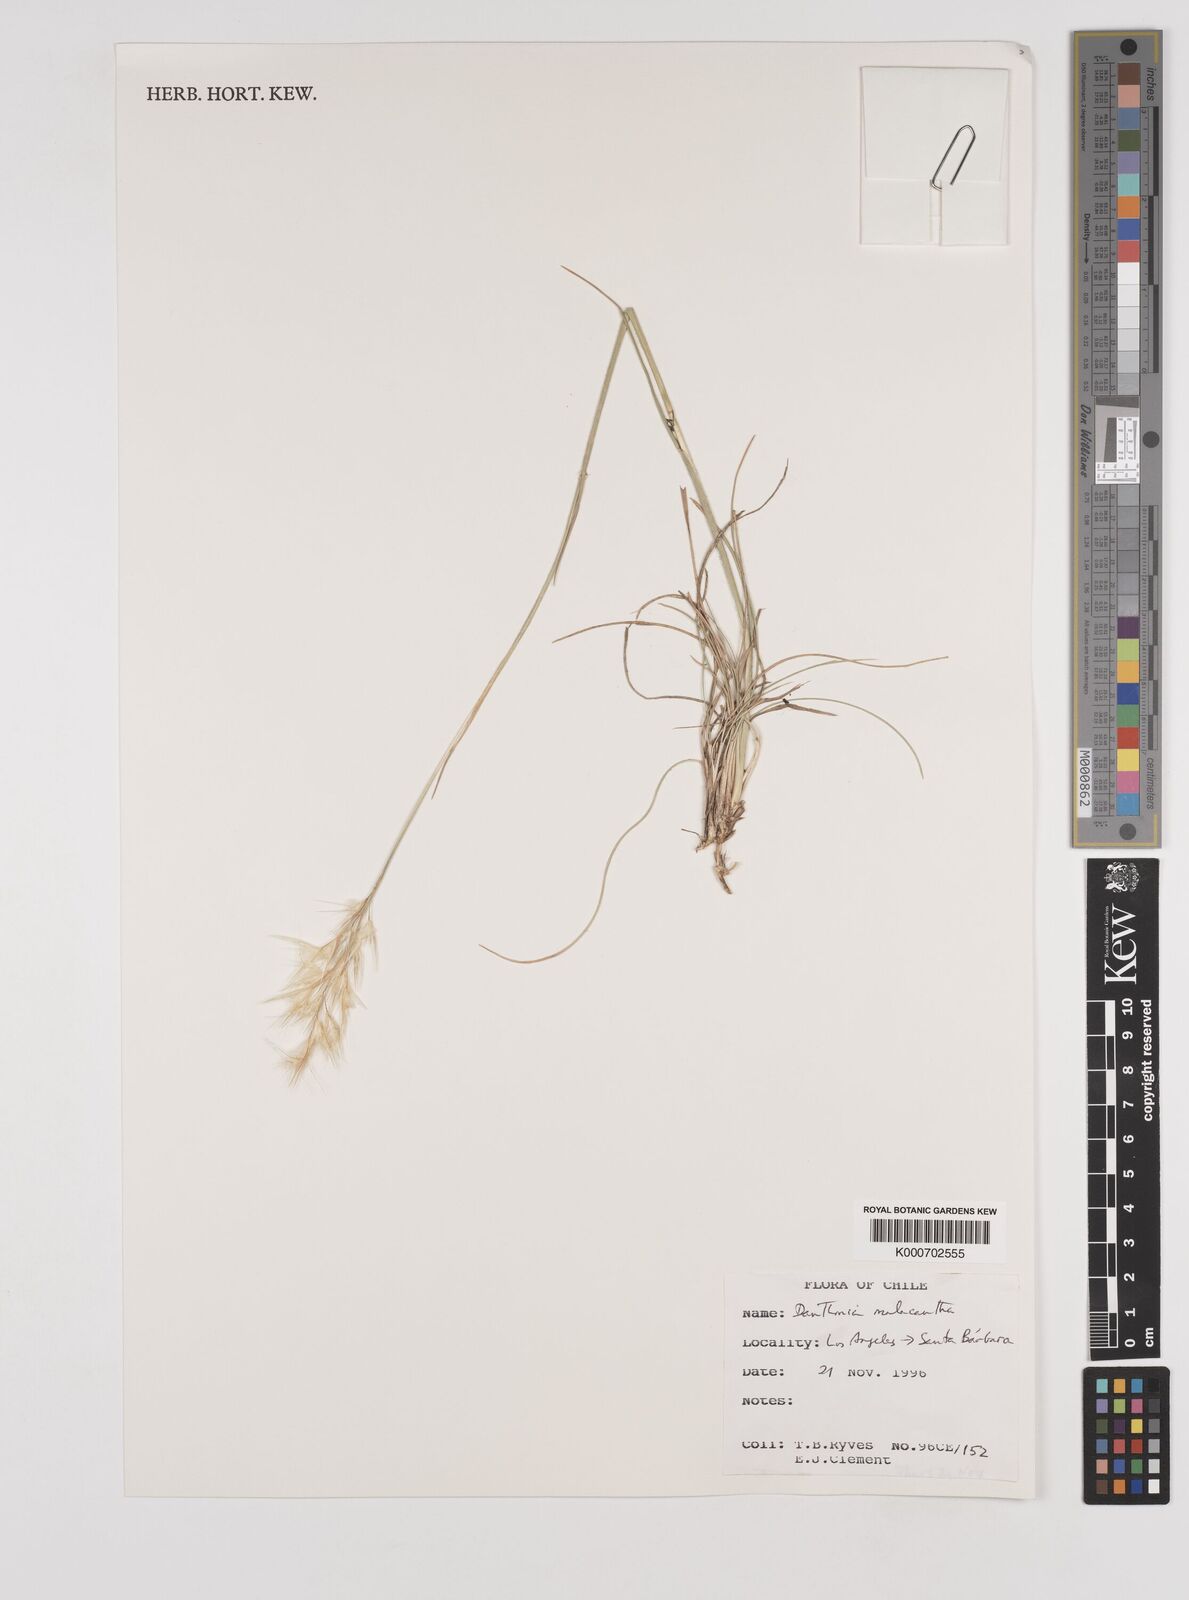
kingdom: Plantae
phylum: Tracheophyta
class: Liliopsida
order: Poales
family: Poaceae
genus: Danthonia
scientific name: Danthonia malacantha
